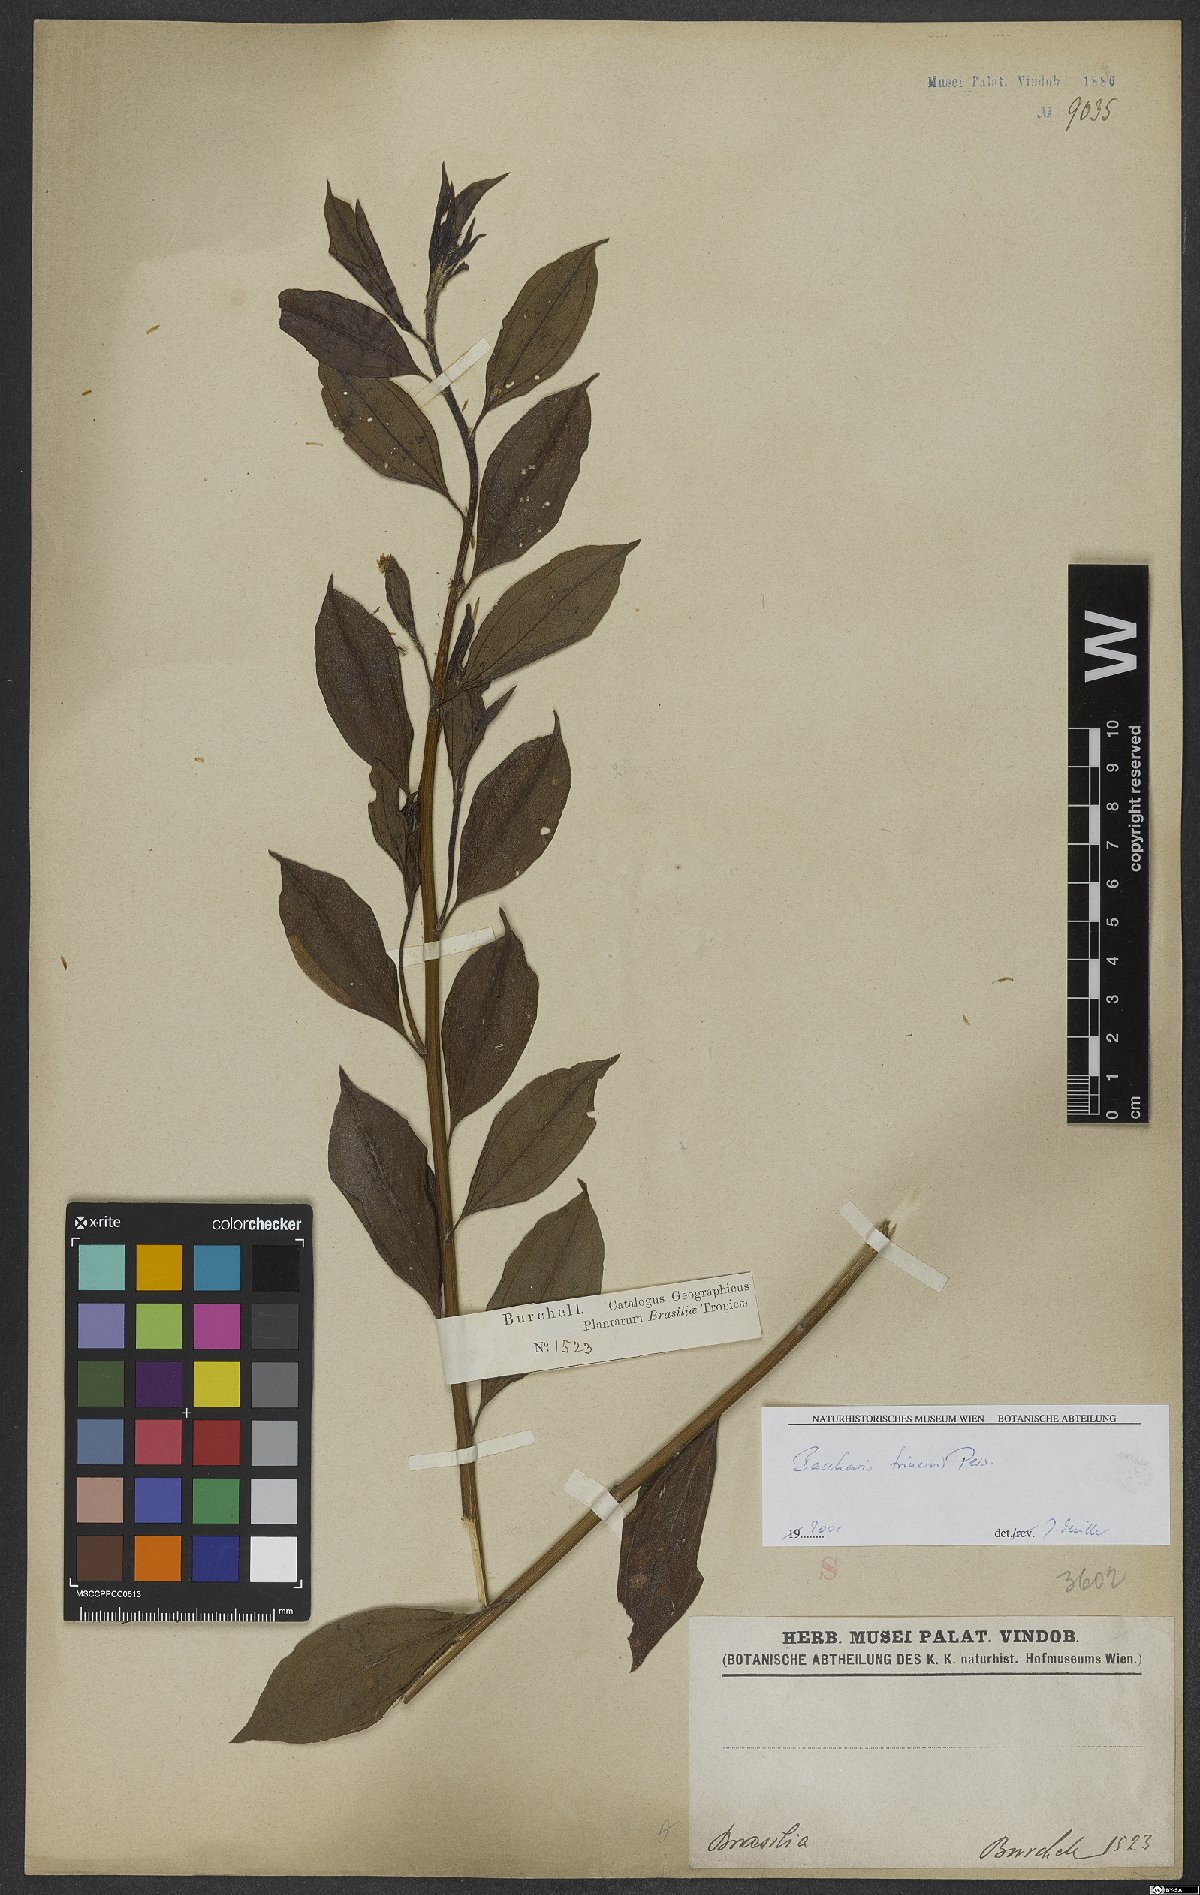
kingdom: Plantae
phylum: Tracheophyta
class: Magnoliopsida
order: Asterales
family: Asteraceae
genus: Baccharis
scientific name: Baccharis trinervis
